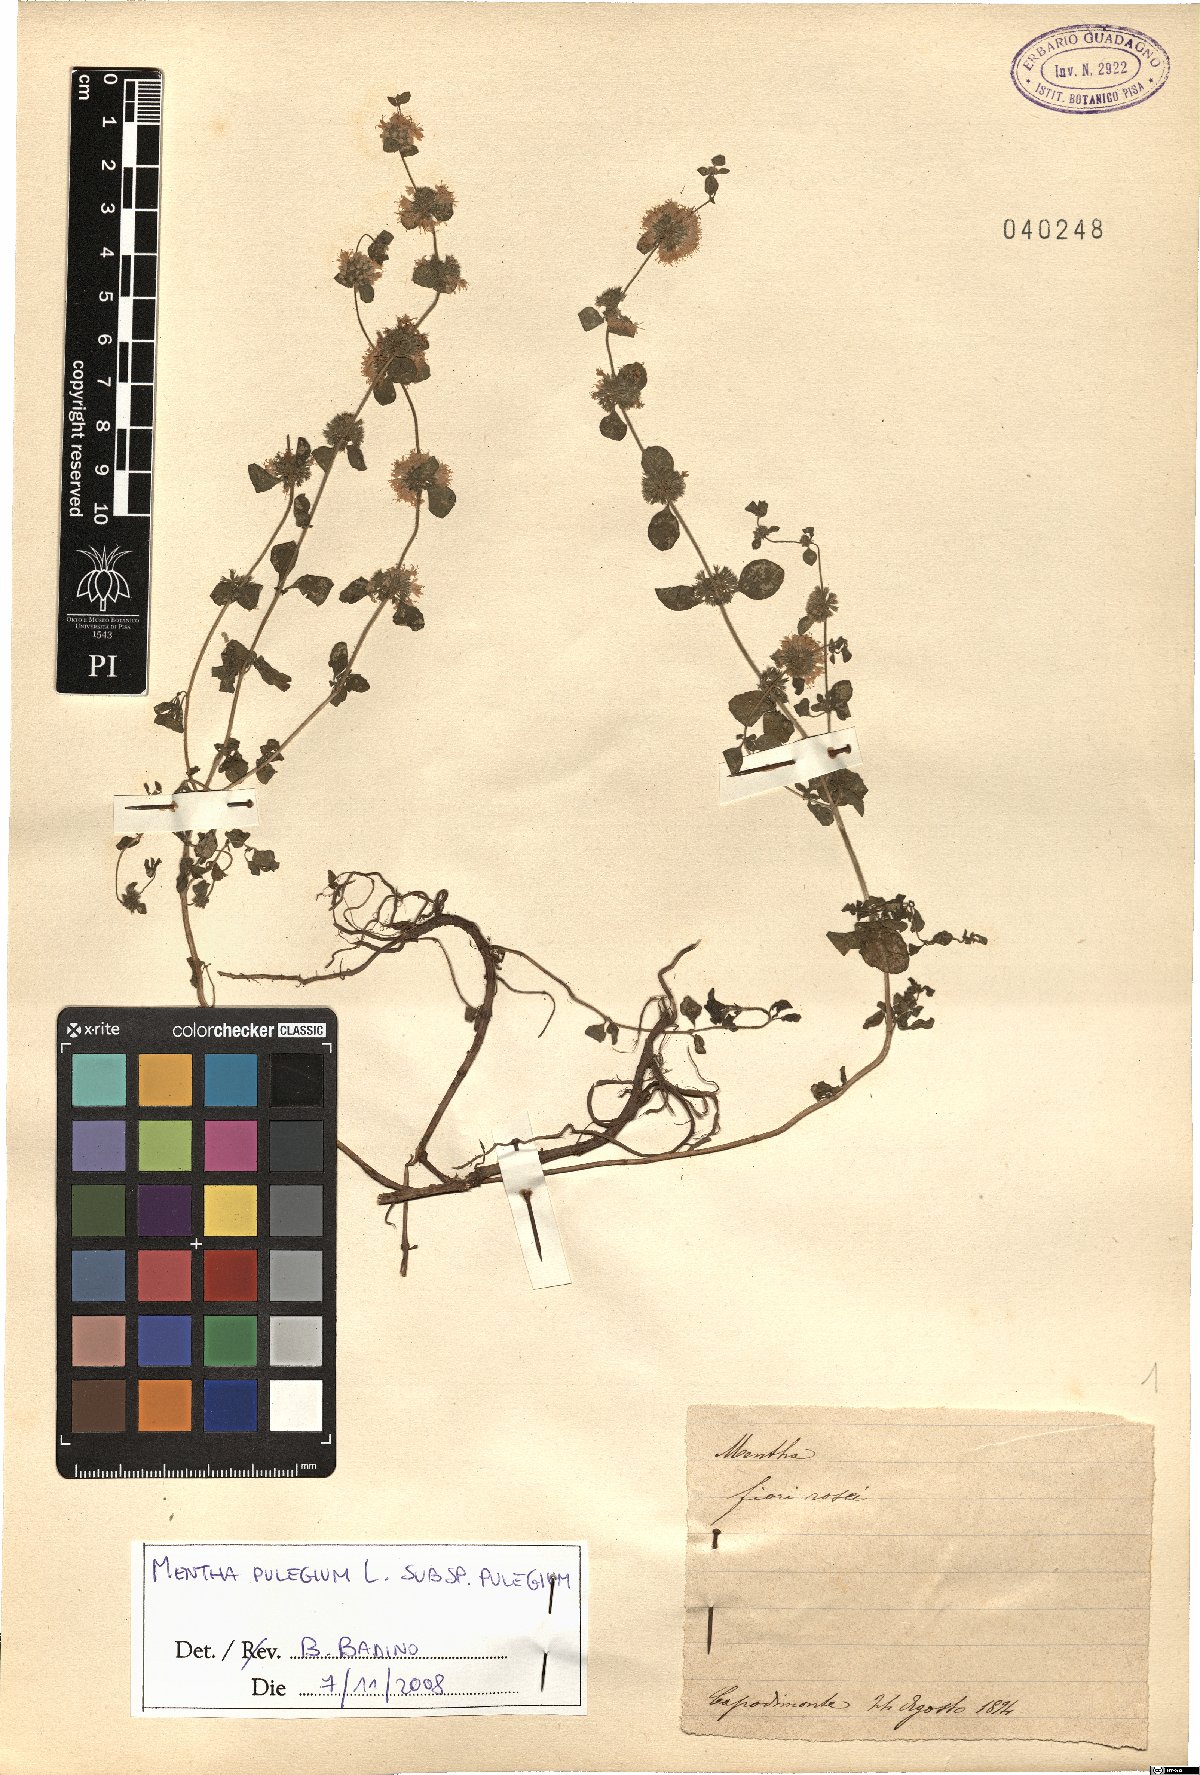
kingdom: Plantae
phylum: Tracheophyta
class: Magnoliopsida
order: Lamiales
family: Lamiaceae
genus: Mentha
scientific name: Mentha pulegium
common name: Pennyroyal
